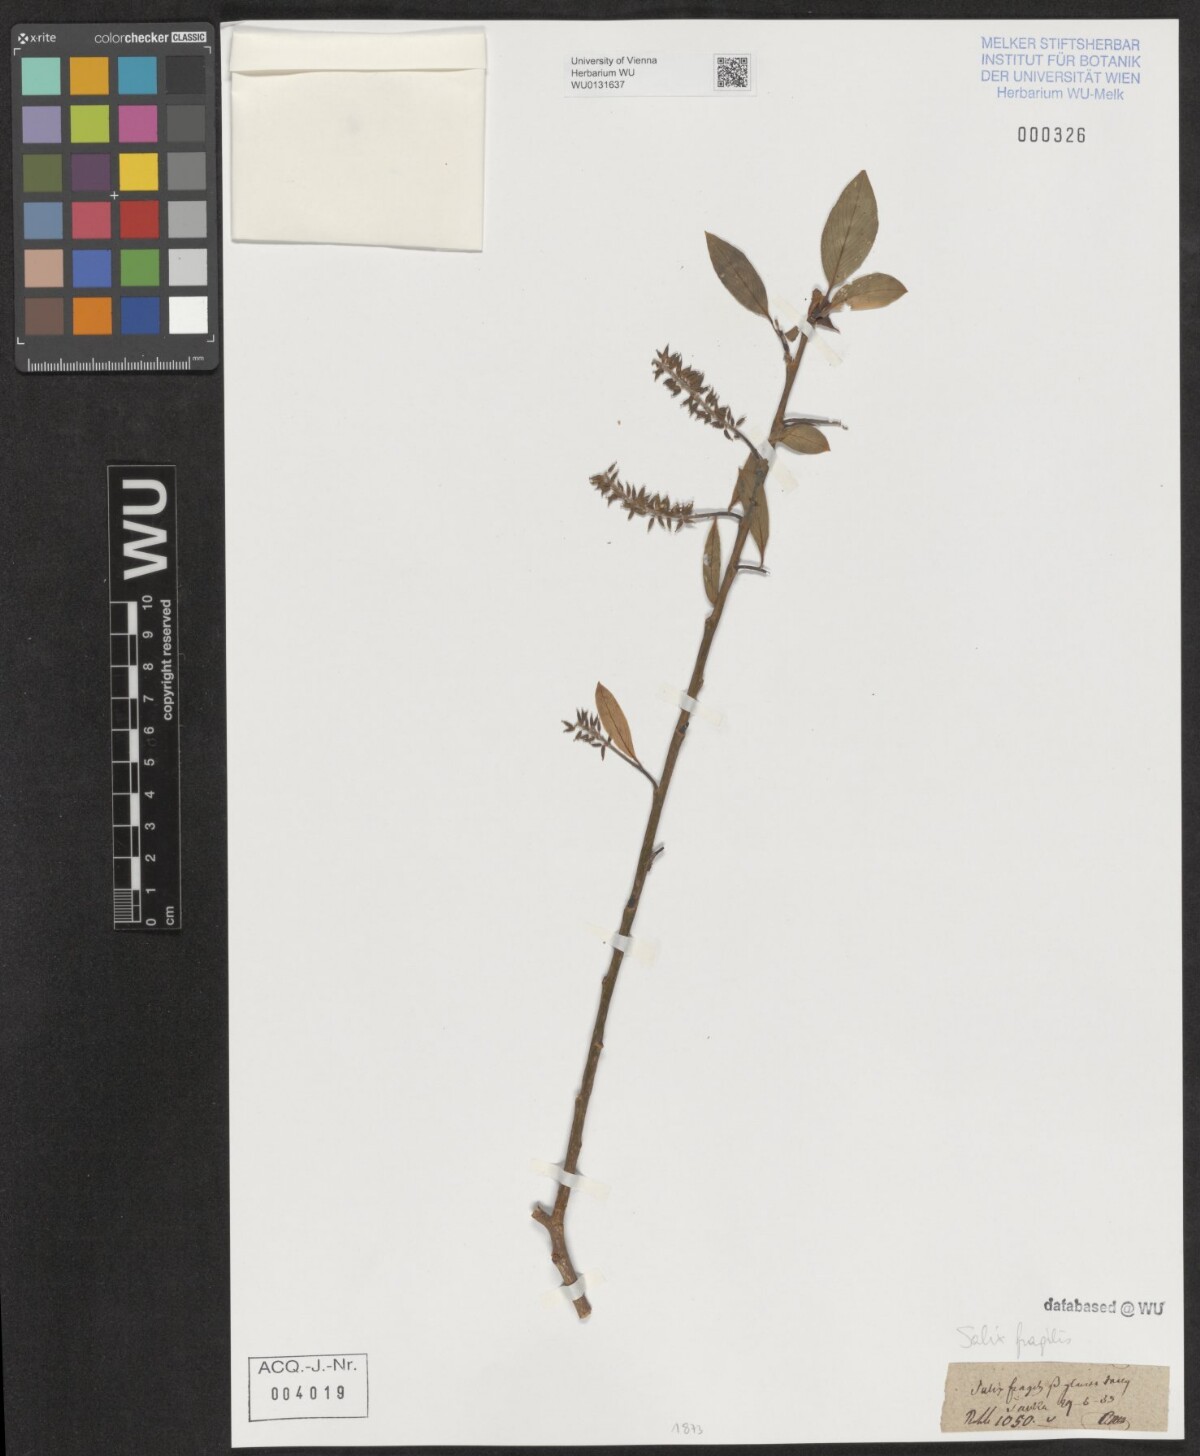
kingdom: Plantae
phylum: Tracheophyta
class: Magnoliopsida
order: Malpighiales
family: Salicaceae
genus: Salix
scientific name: Salix fragilis
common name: Crack willow
